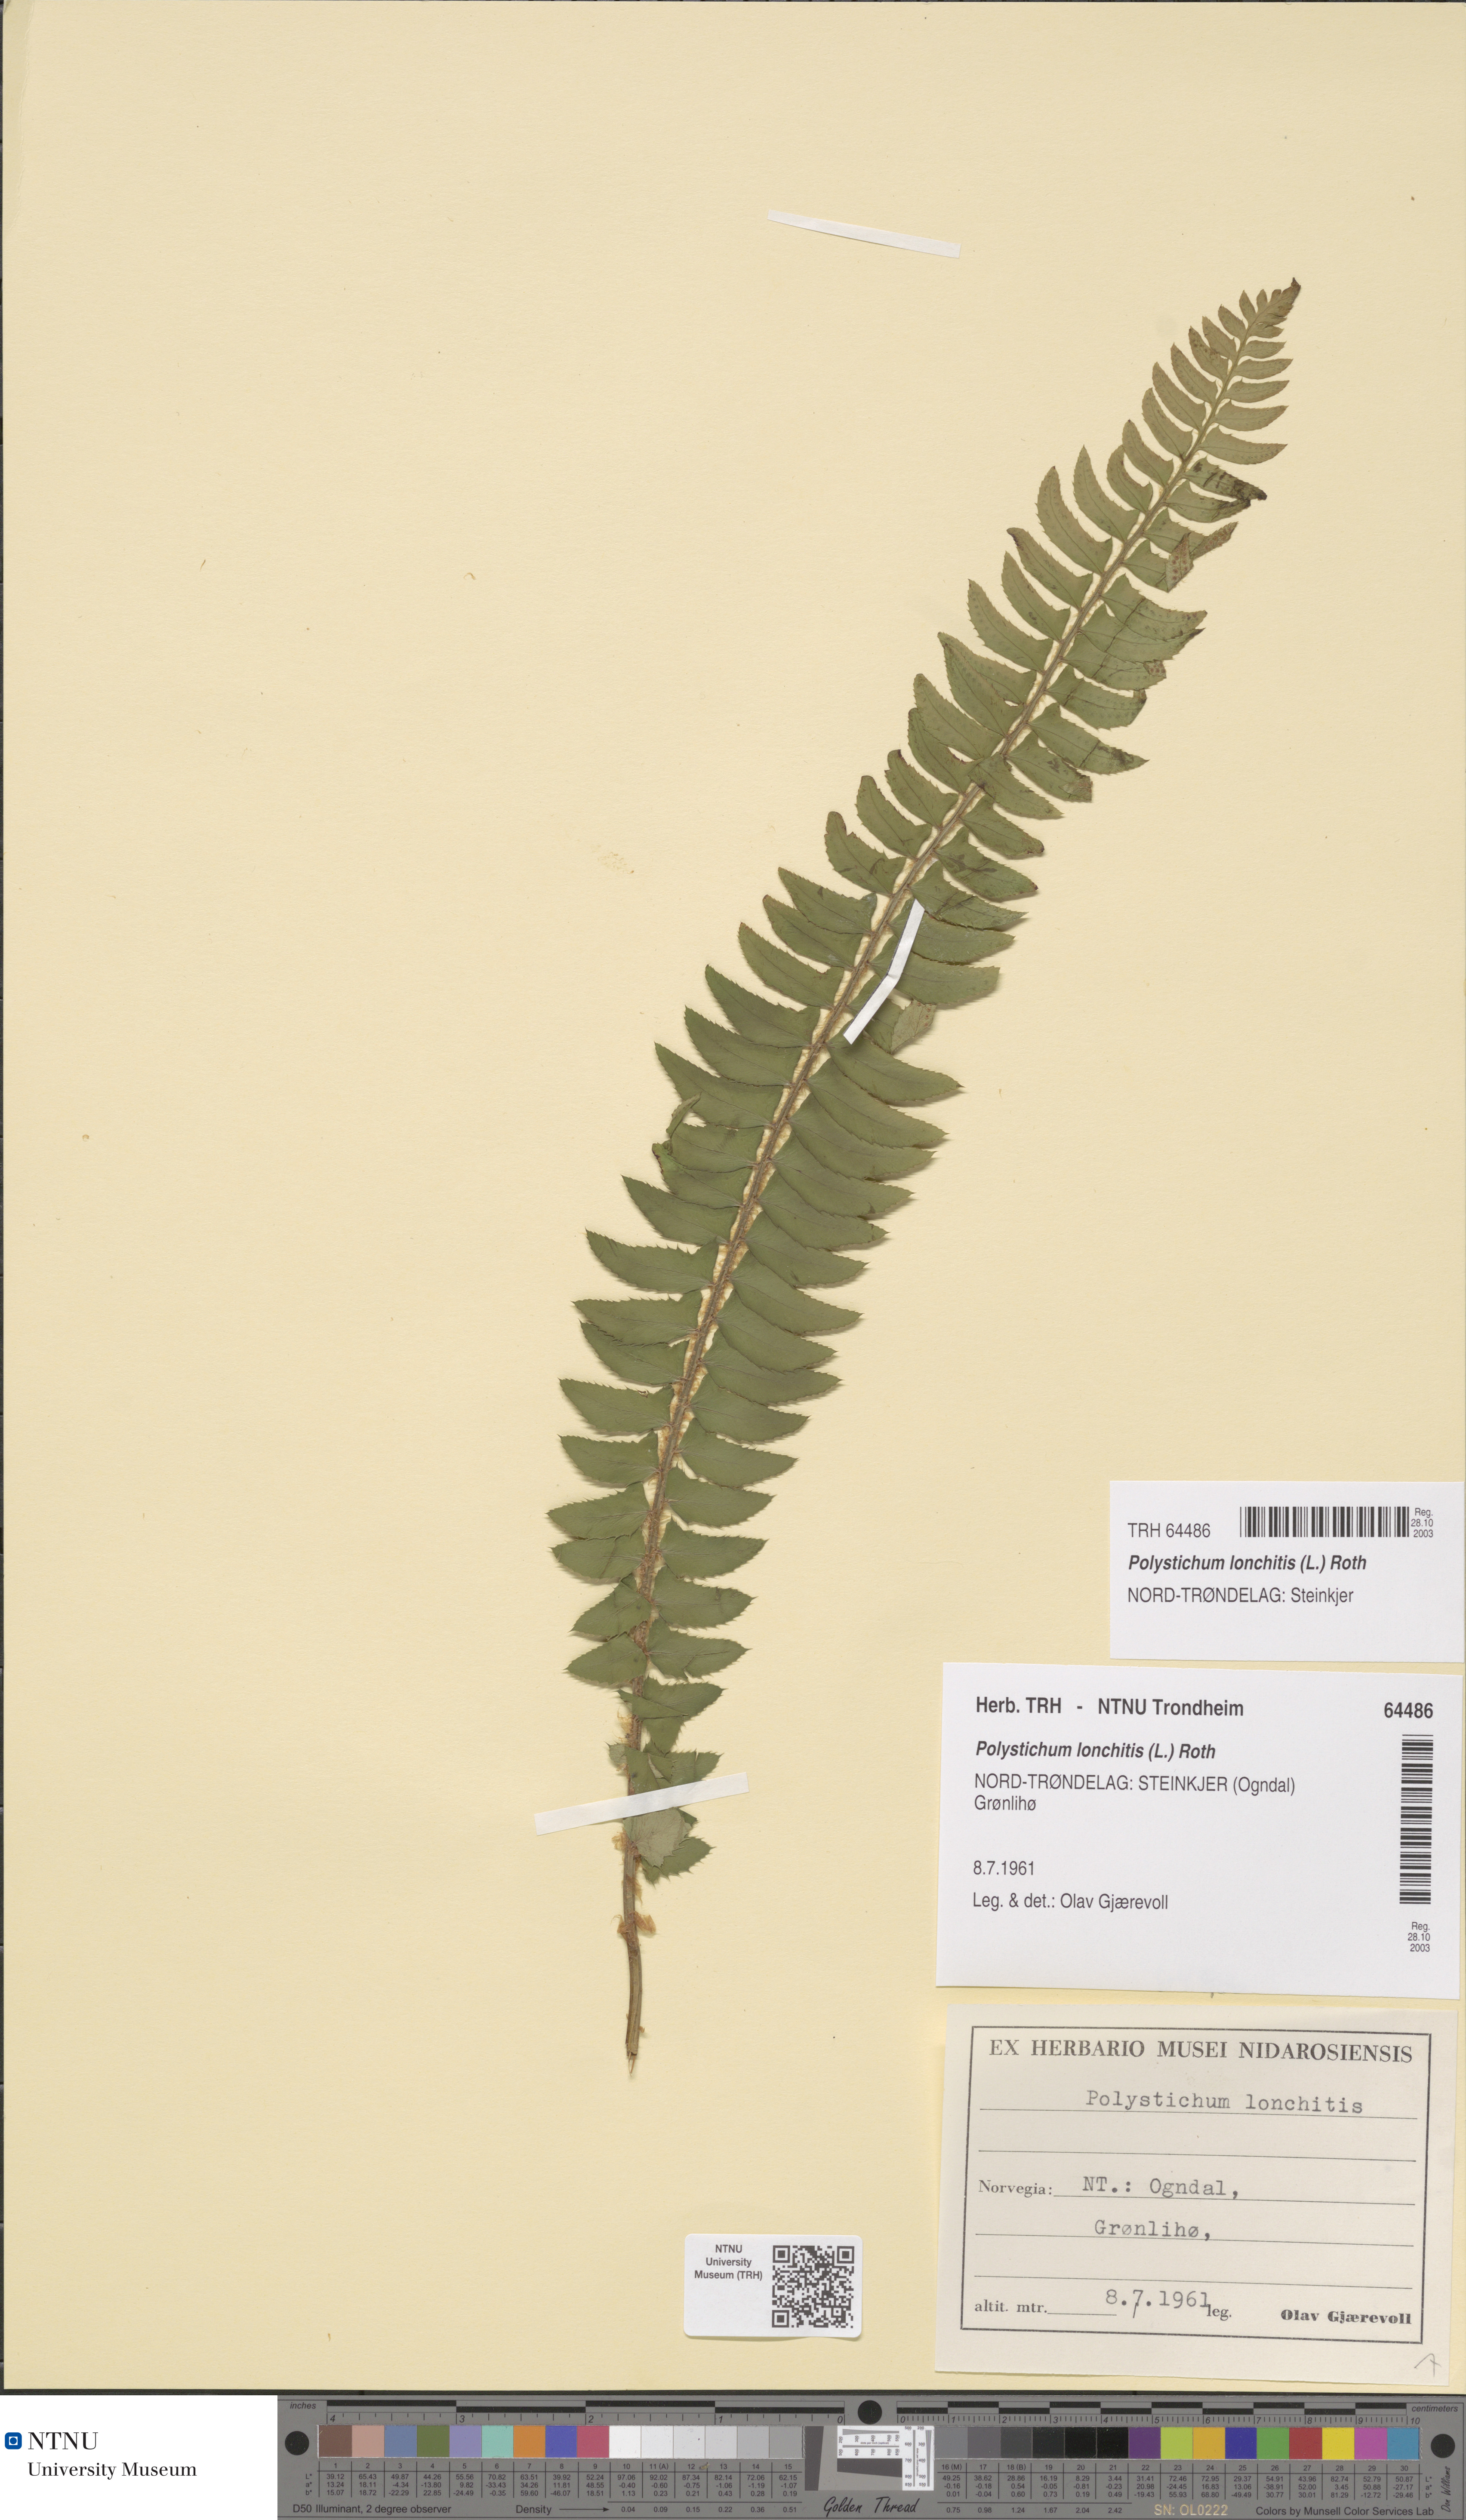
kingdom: Plantae
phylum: Tracheophyta
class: Polypodiopsida
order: Polypodiales
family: Dryopteridaceae
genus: Polystichum
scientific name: Polystichum lonchitis
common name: Holly fern
